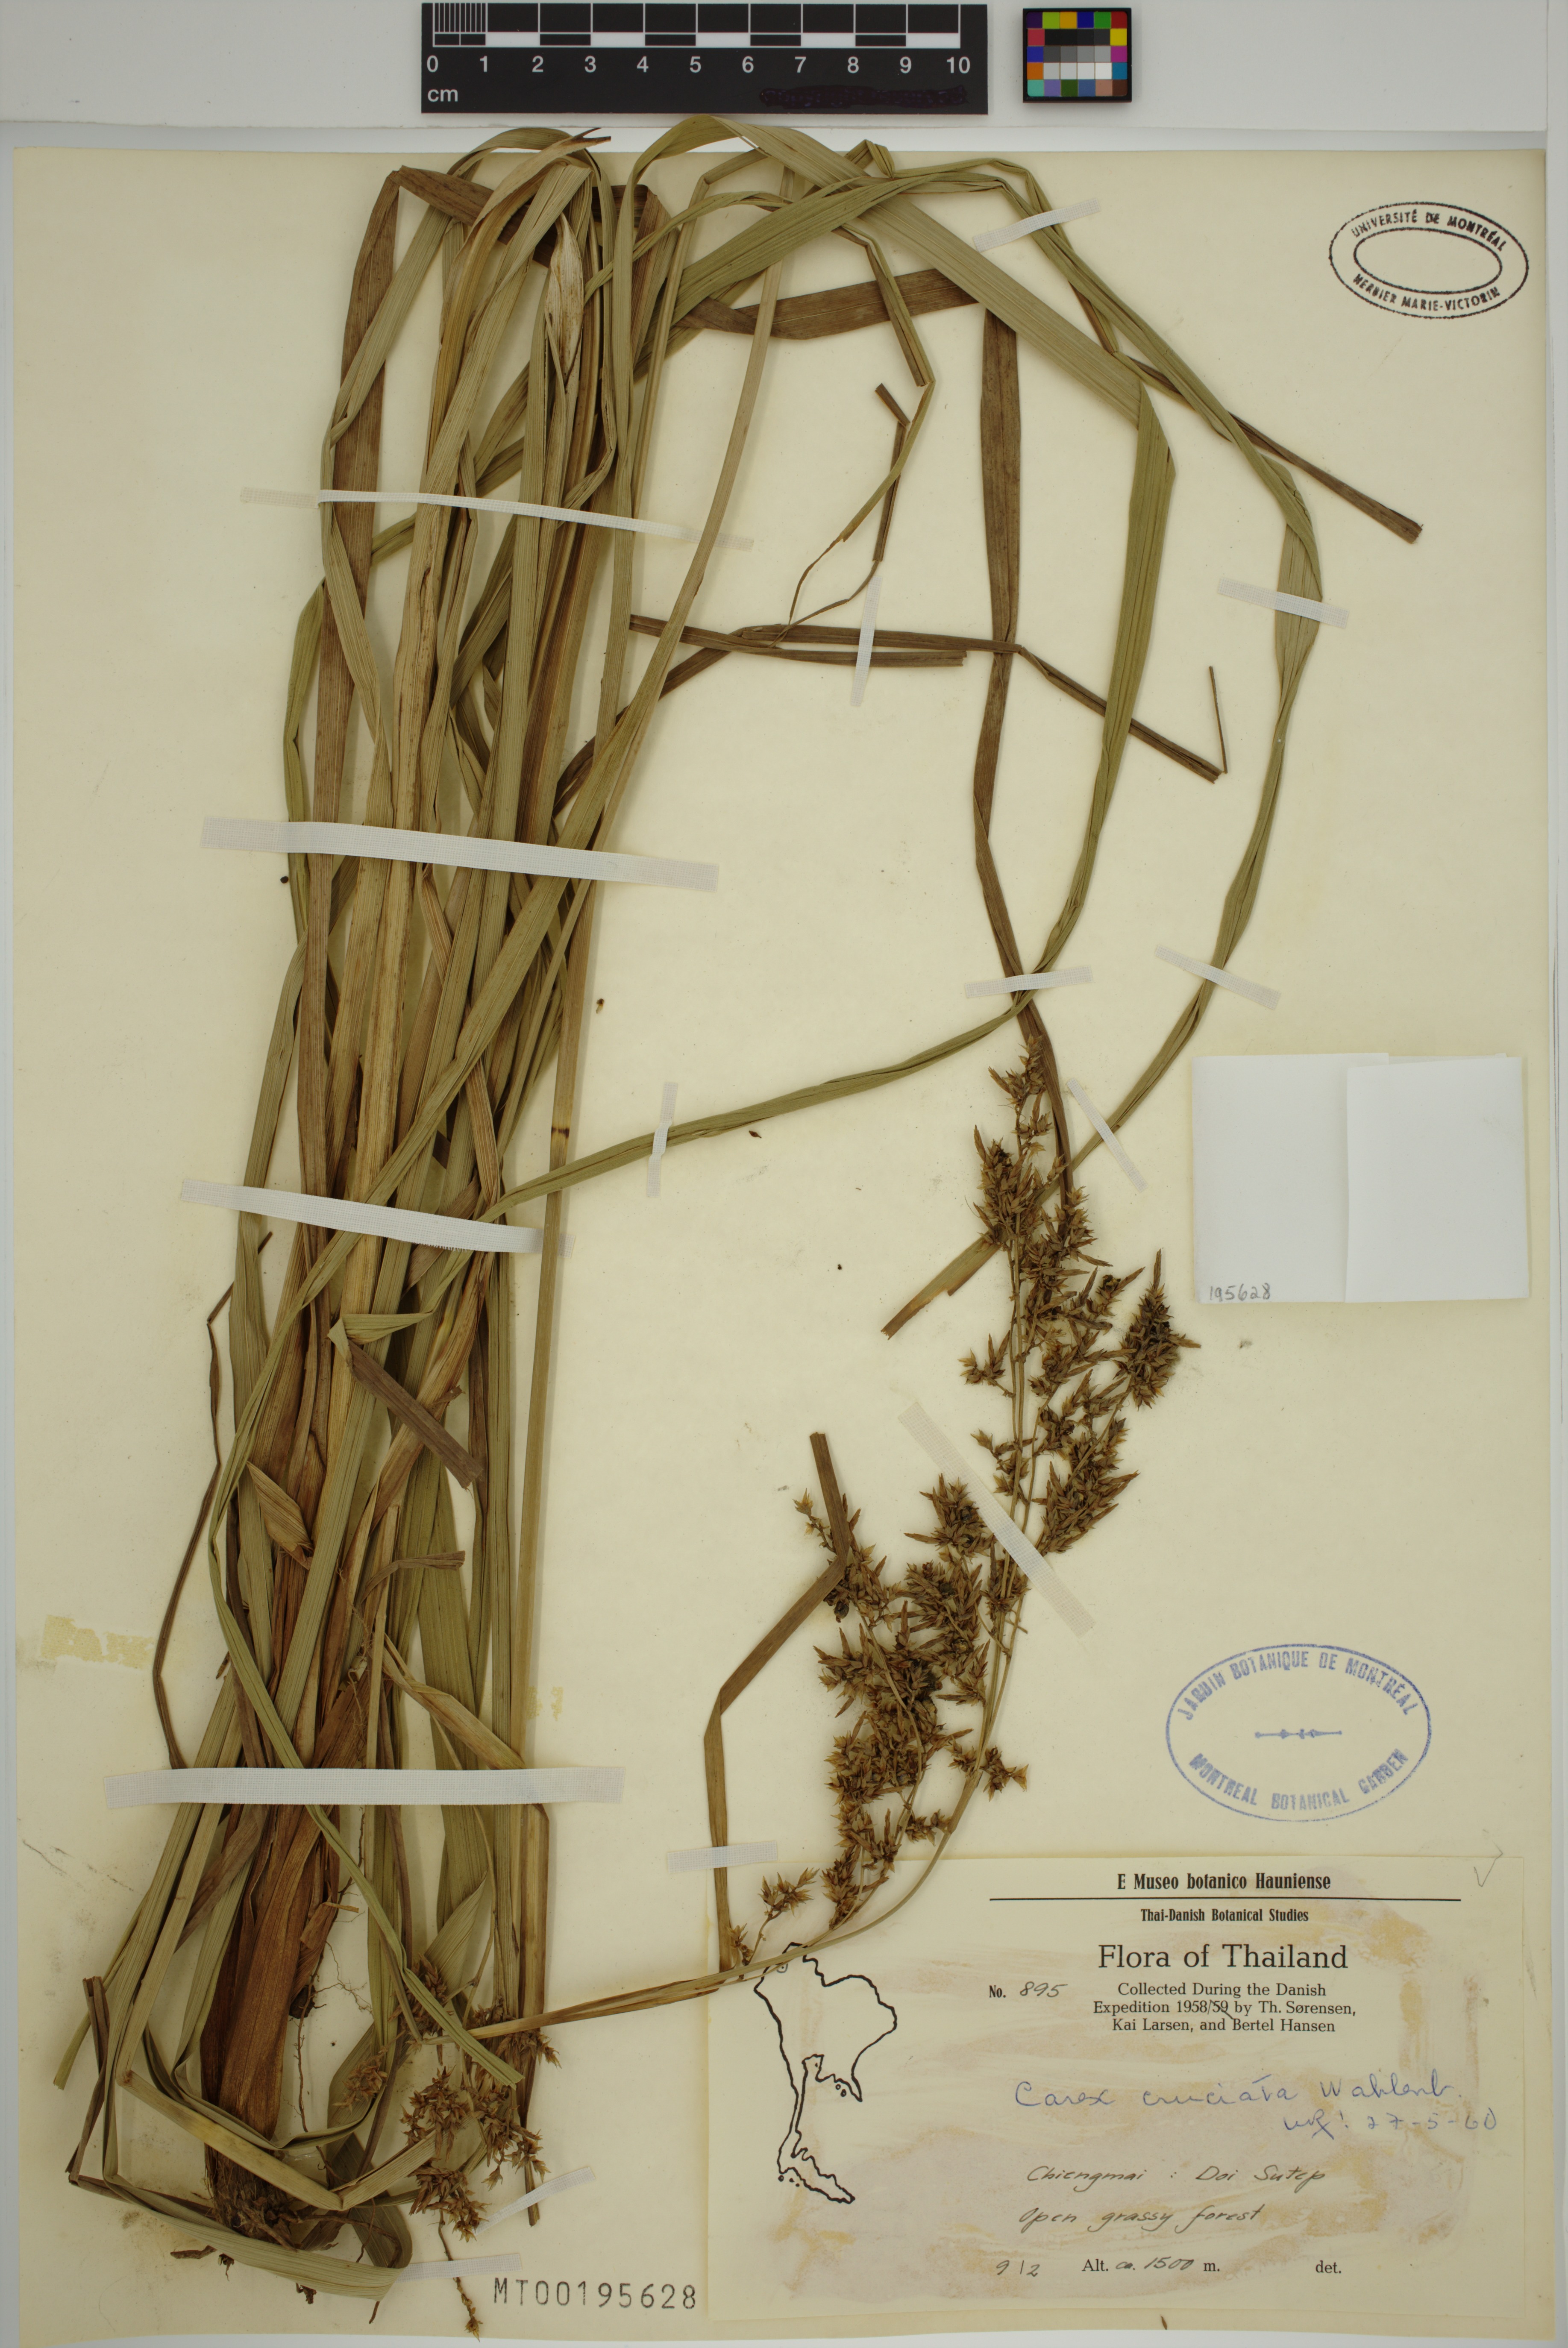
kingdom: Plantae
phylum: Tracheophyta
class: Liliopsida
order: Poales
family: Cyperaceae
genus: Carex
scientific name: Carex cruciata
